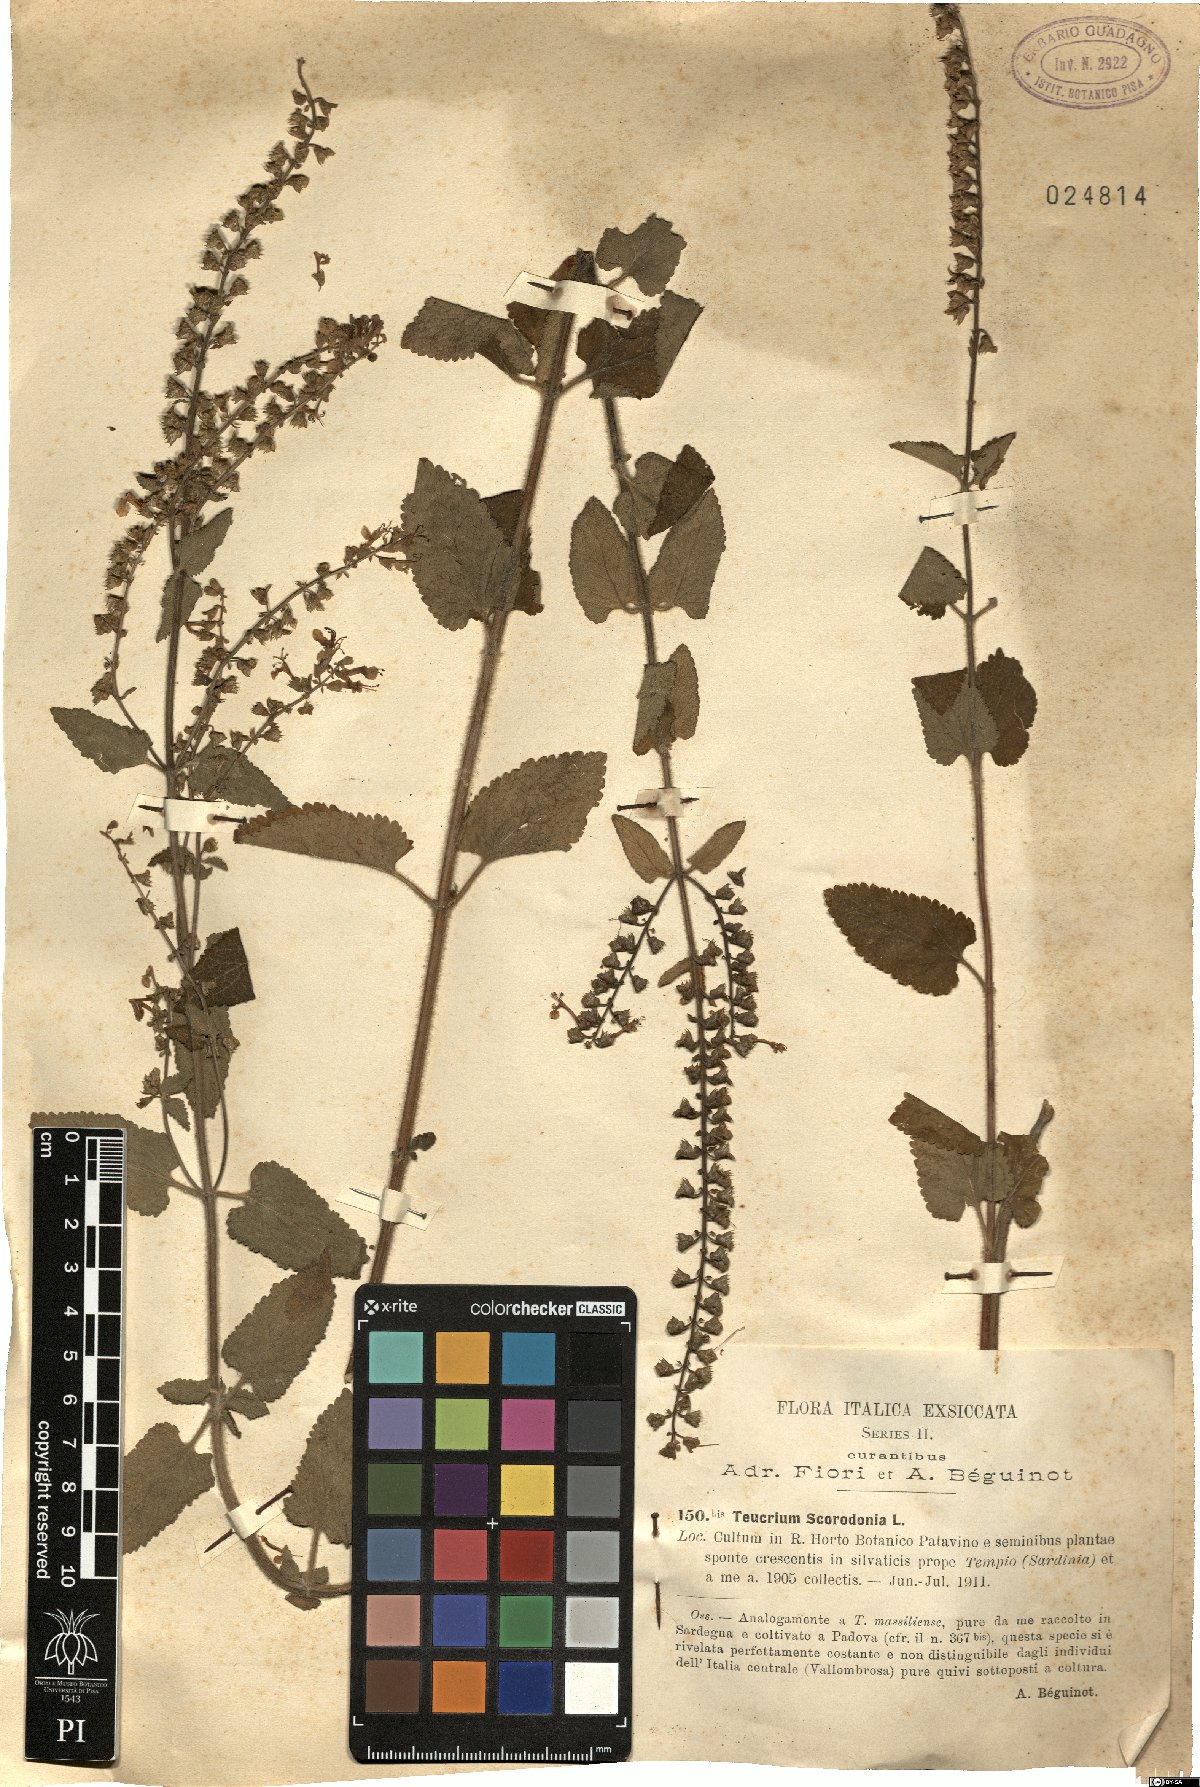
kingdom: Plantae
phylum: Tracheophyta
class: Magnoliopsida
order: Lamiales
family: Lamiaceae
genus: Teucrium
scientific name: Teucrium scorodonia
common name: Woodland germander
